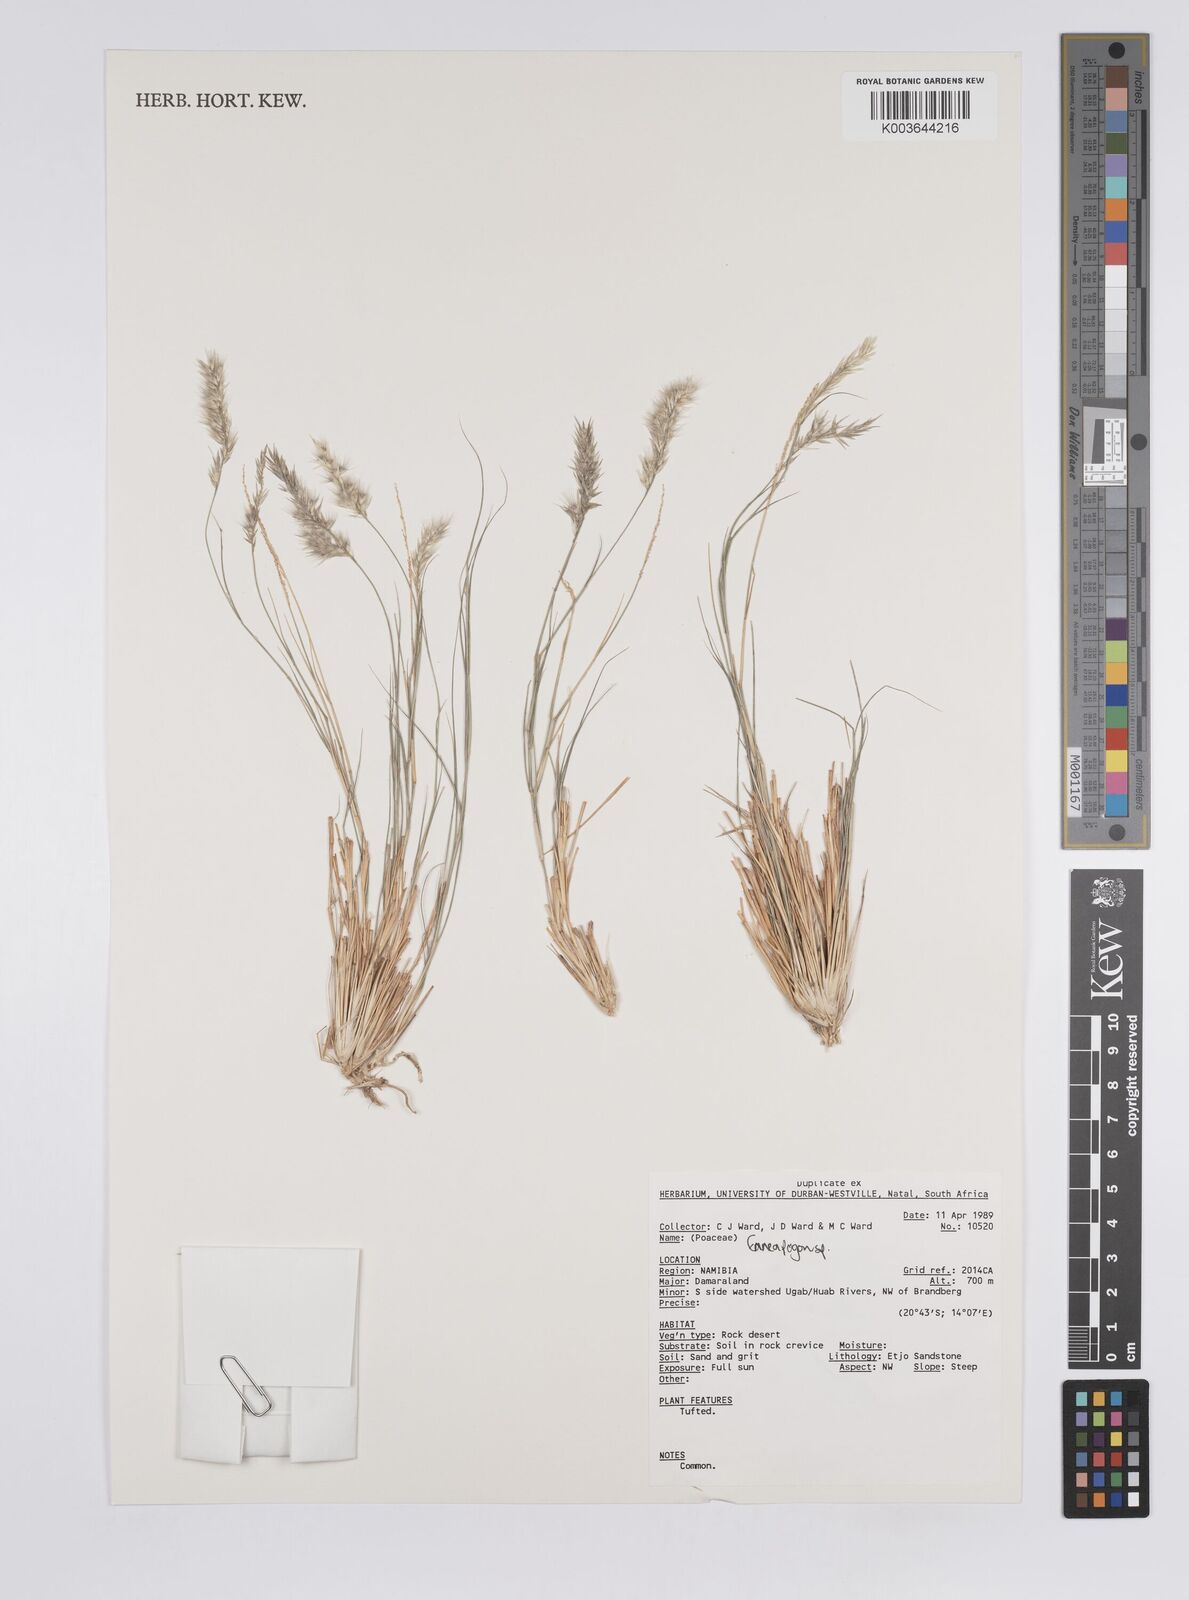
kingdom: Plantae
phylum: Tracheophyta
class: Liliopsida
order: Poales
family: Poaceae
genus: Enneapogon
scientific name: Enneapogon
